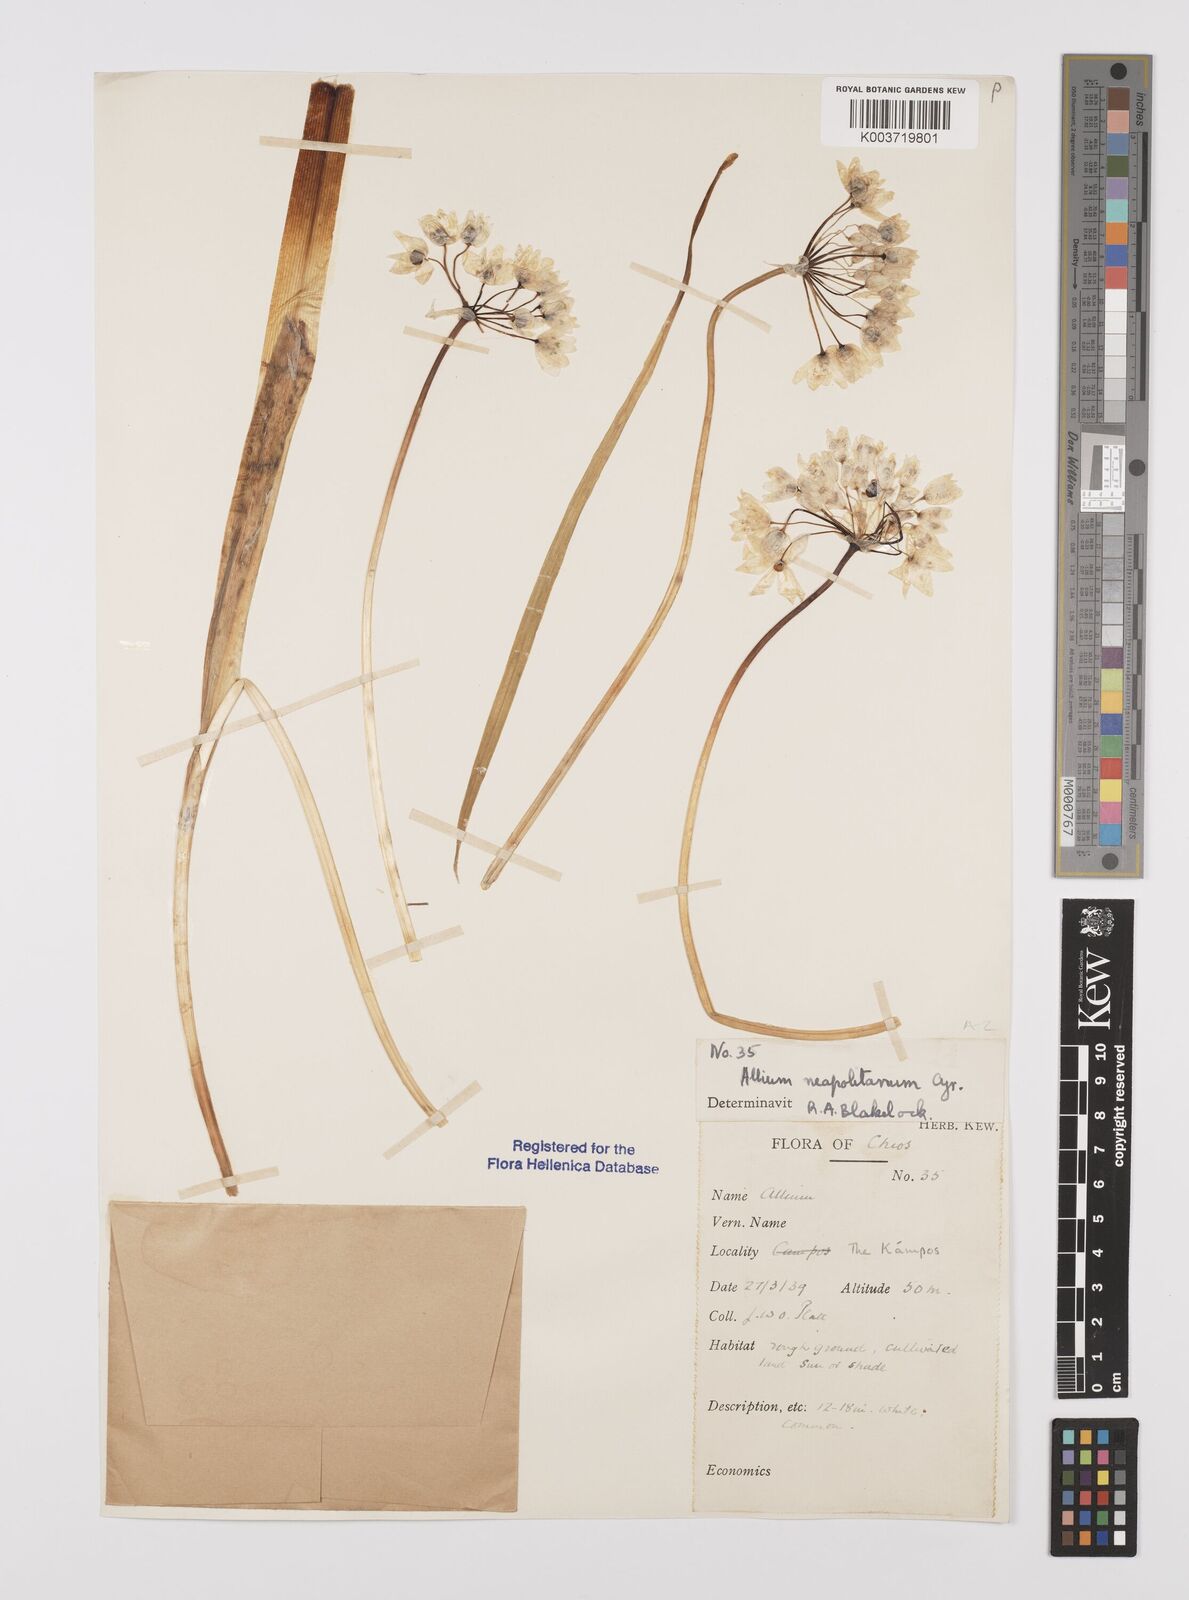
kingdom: Plantae
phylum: Tracheophyta
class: Liliopsida
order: Asparagales
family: Amaryllidaceae
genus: Allium
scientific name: Allium neapolitanum
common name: Neapolitan garlic
